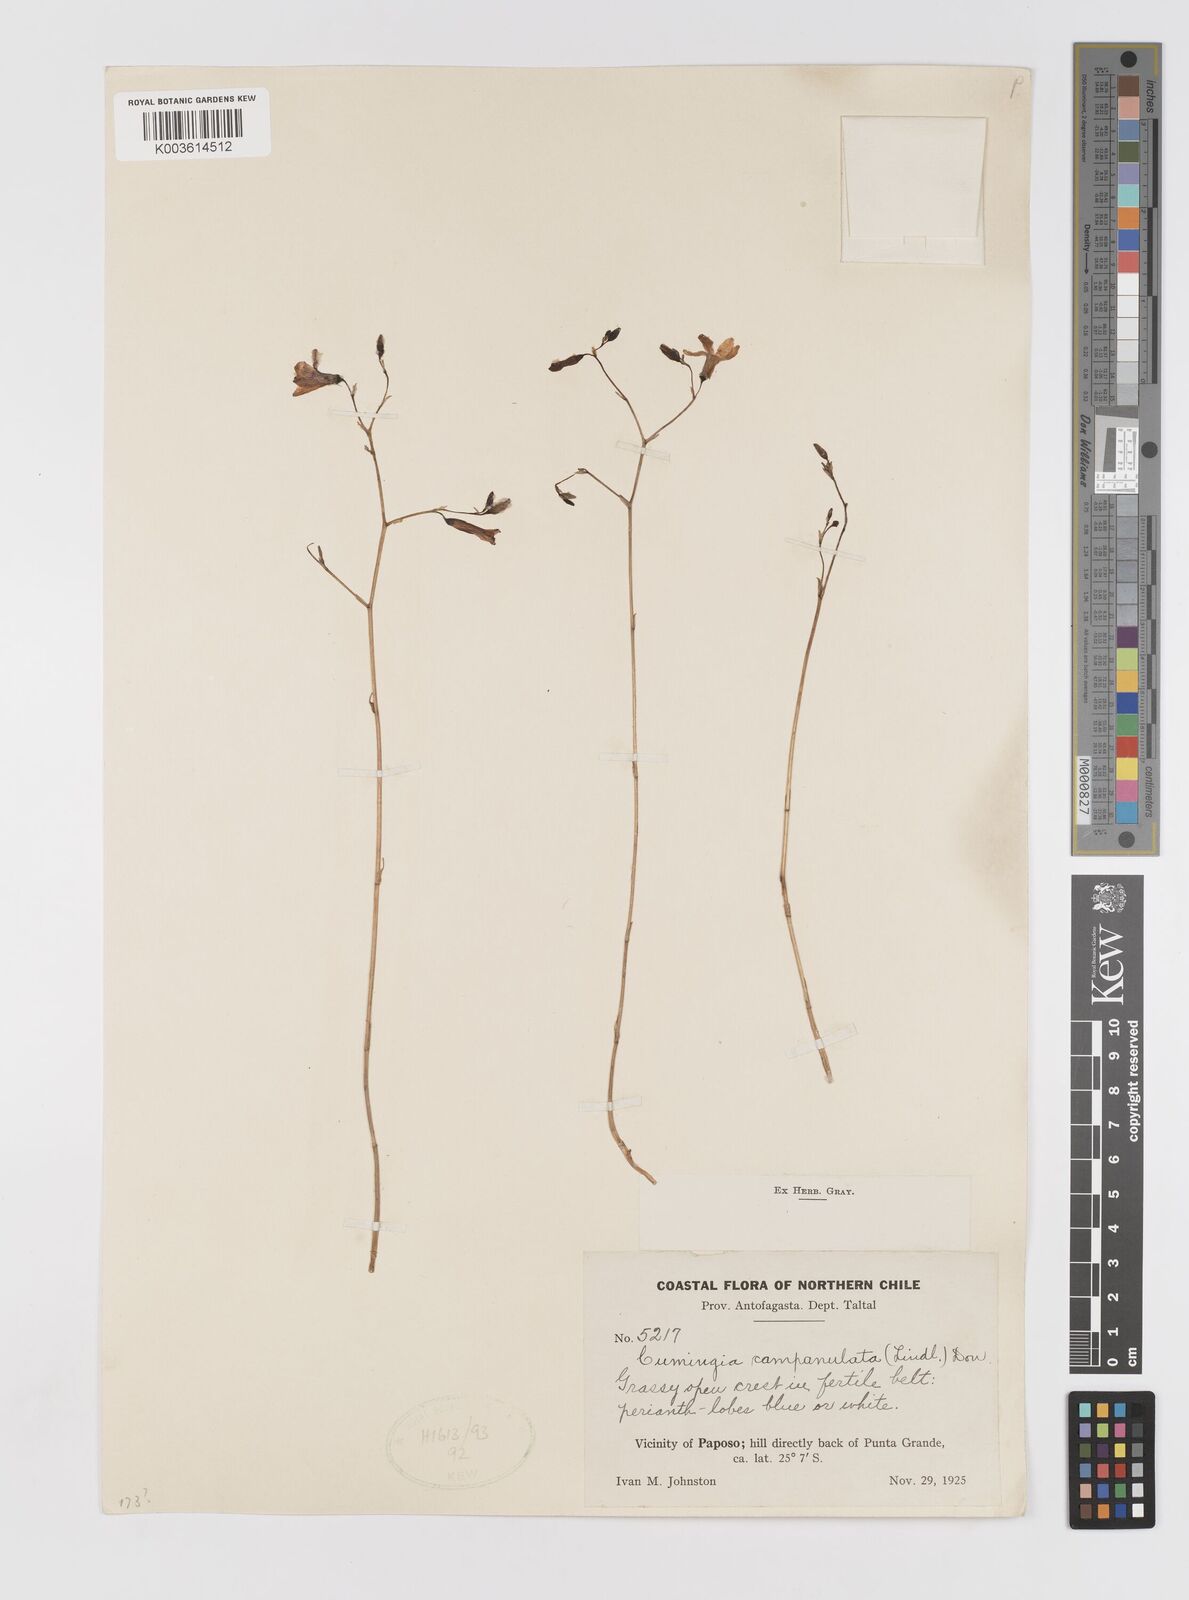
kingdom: Plantae
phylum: Tracheophyta
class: Liliopsida
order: Asparagales
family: Tecophilaeaceae
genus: Conanthera
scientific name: Conanthera campanulata
